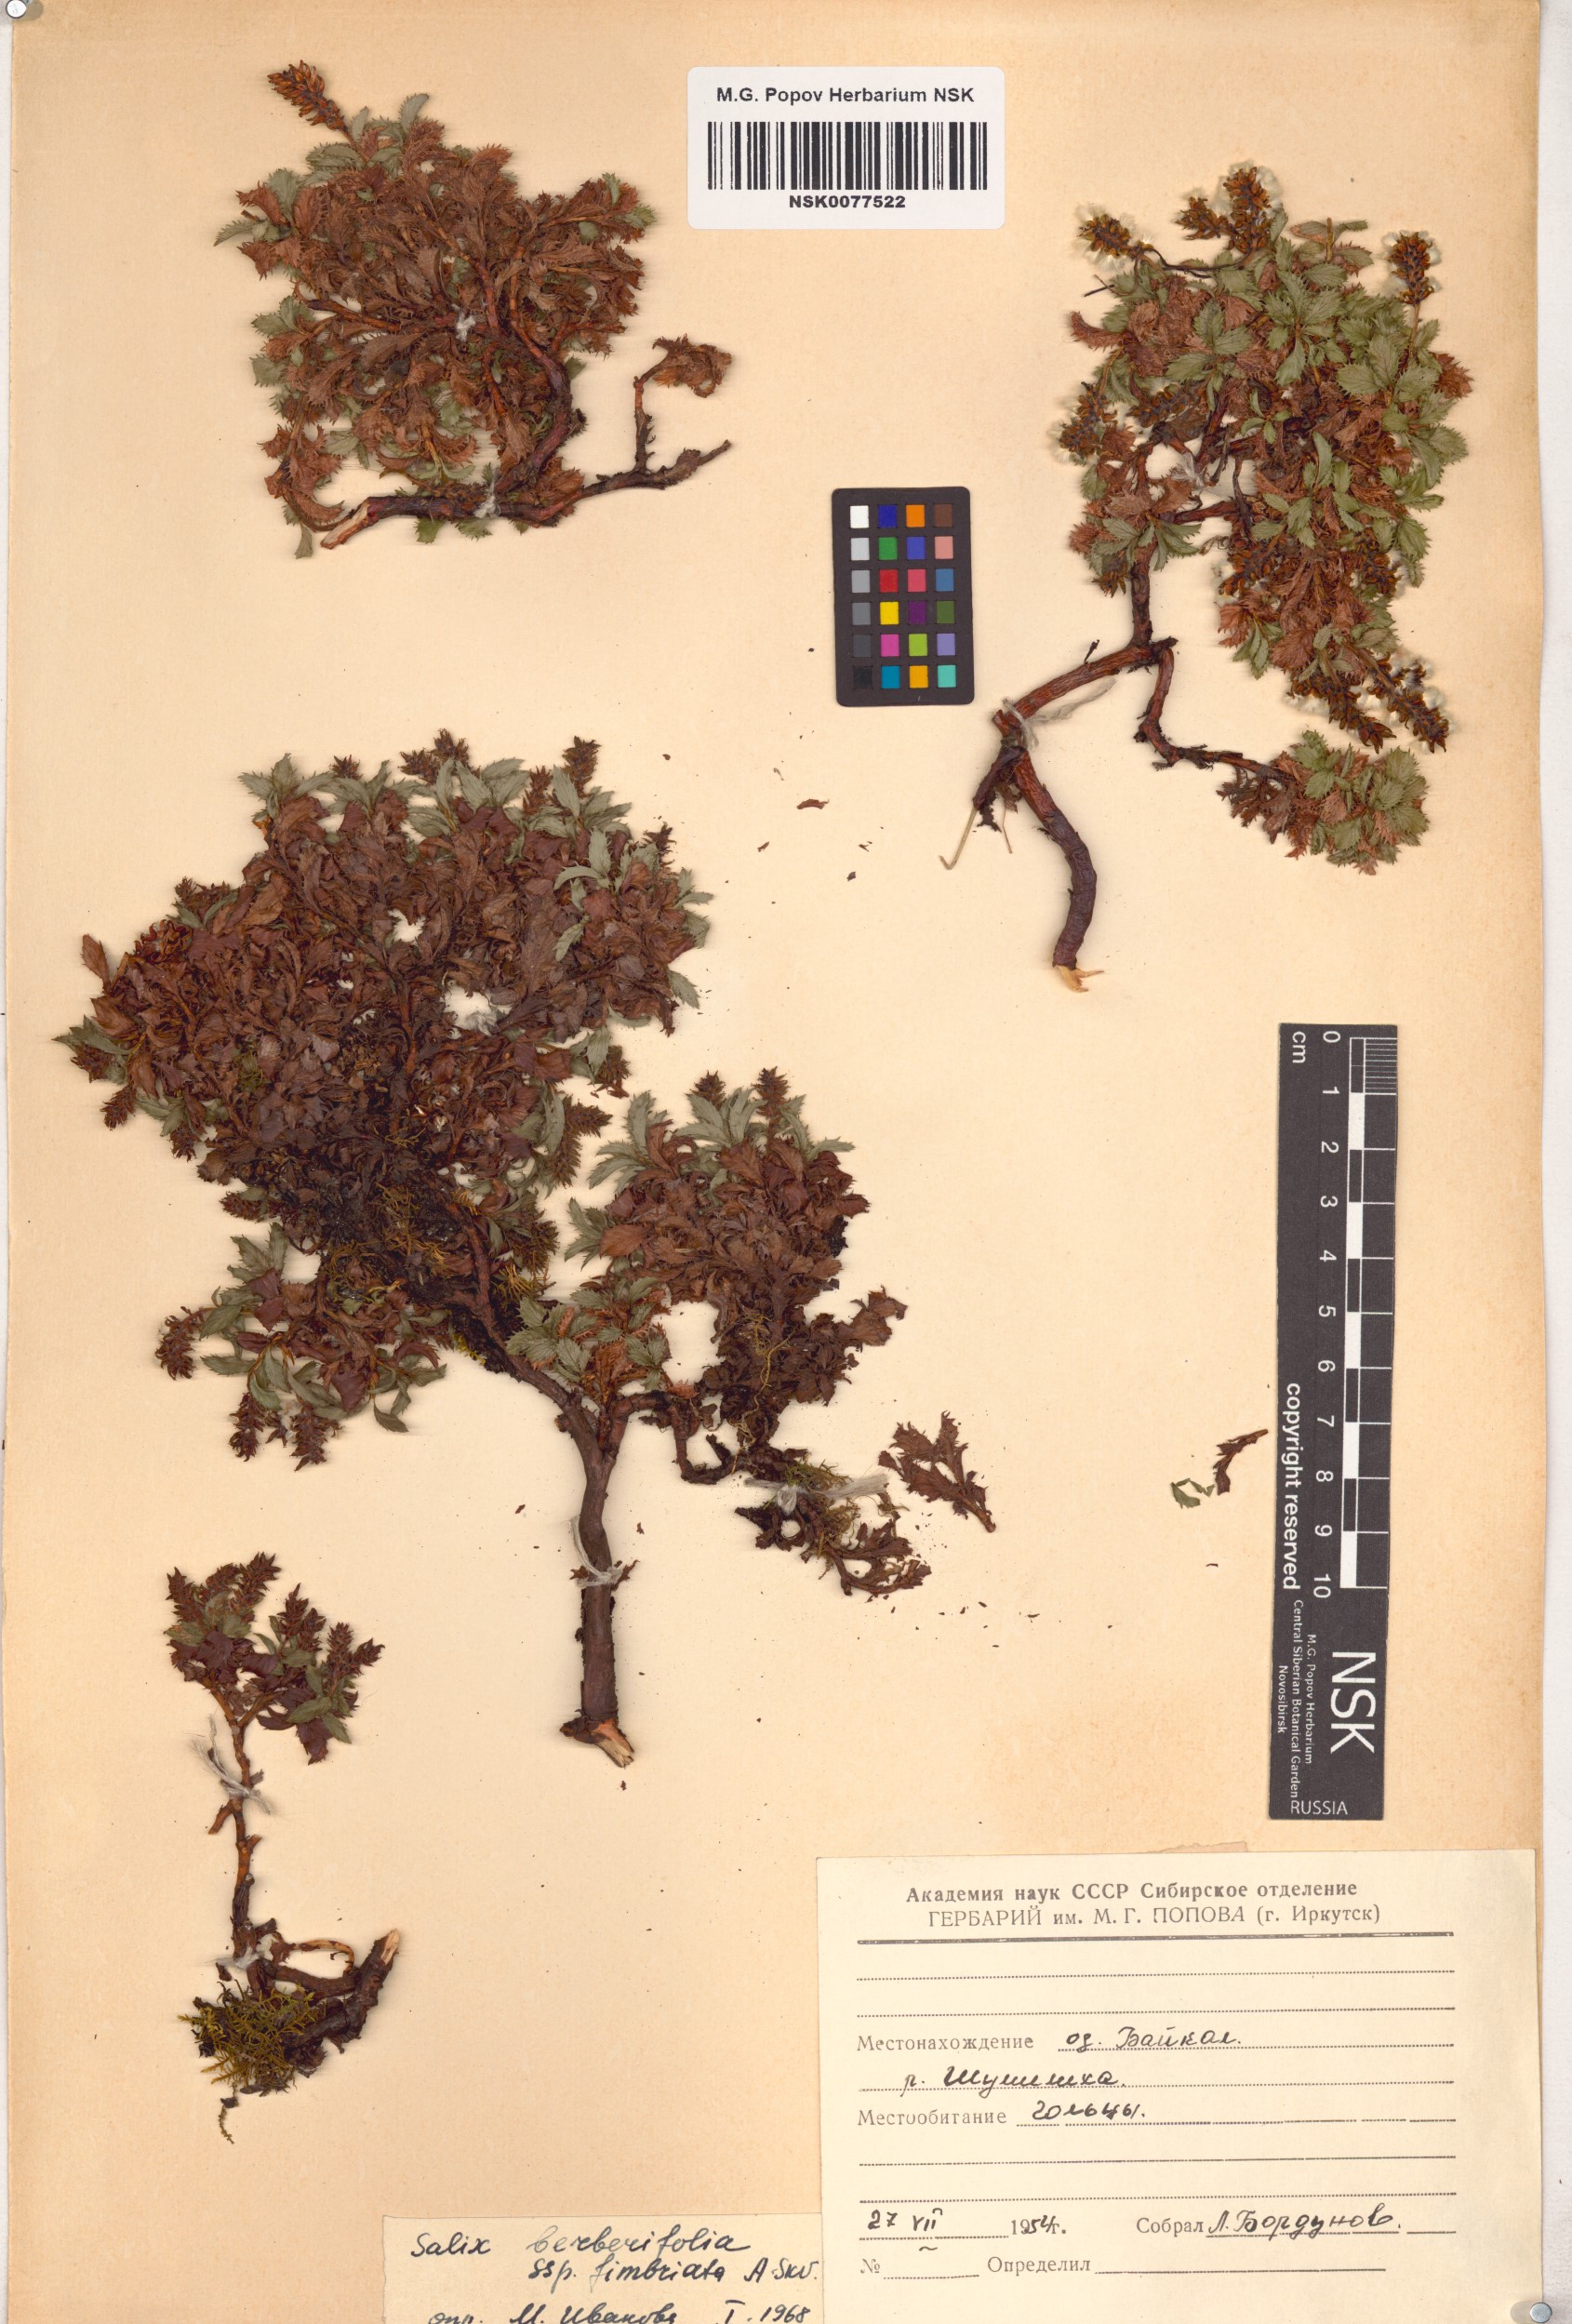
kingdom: Plantae
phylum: Tracheophyta
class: Magnoliopsida
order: Malpighiales
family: Salicaceae
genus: Salix
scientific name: Salix berberifolia
